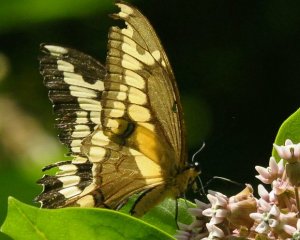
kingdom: Animalia
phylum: Arthropoda
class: Insecta
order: Lepidoptera
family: Papilionidae
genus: Papilio
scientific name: Papilio cresphontes
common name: Eastern Giant Swallowtail
